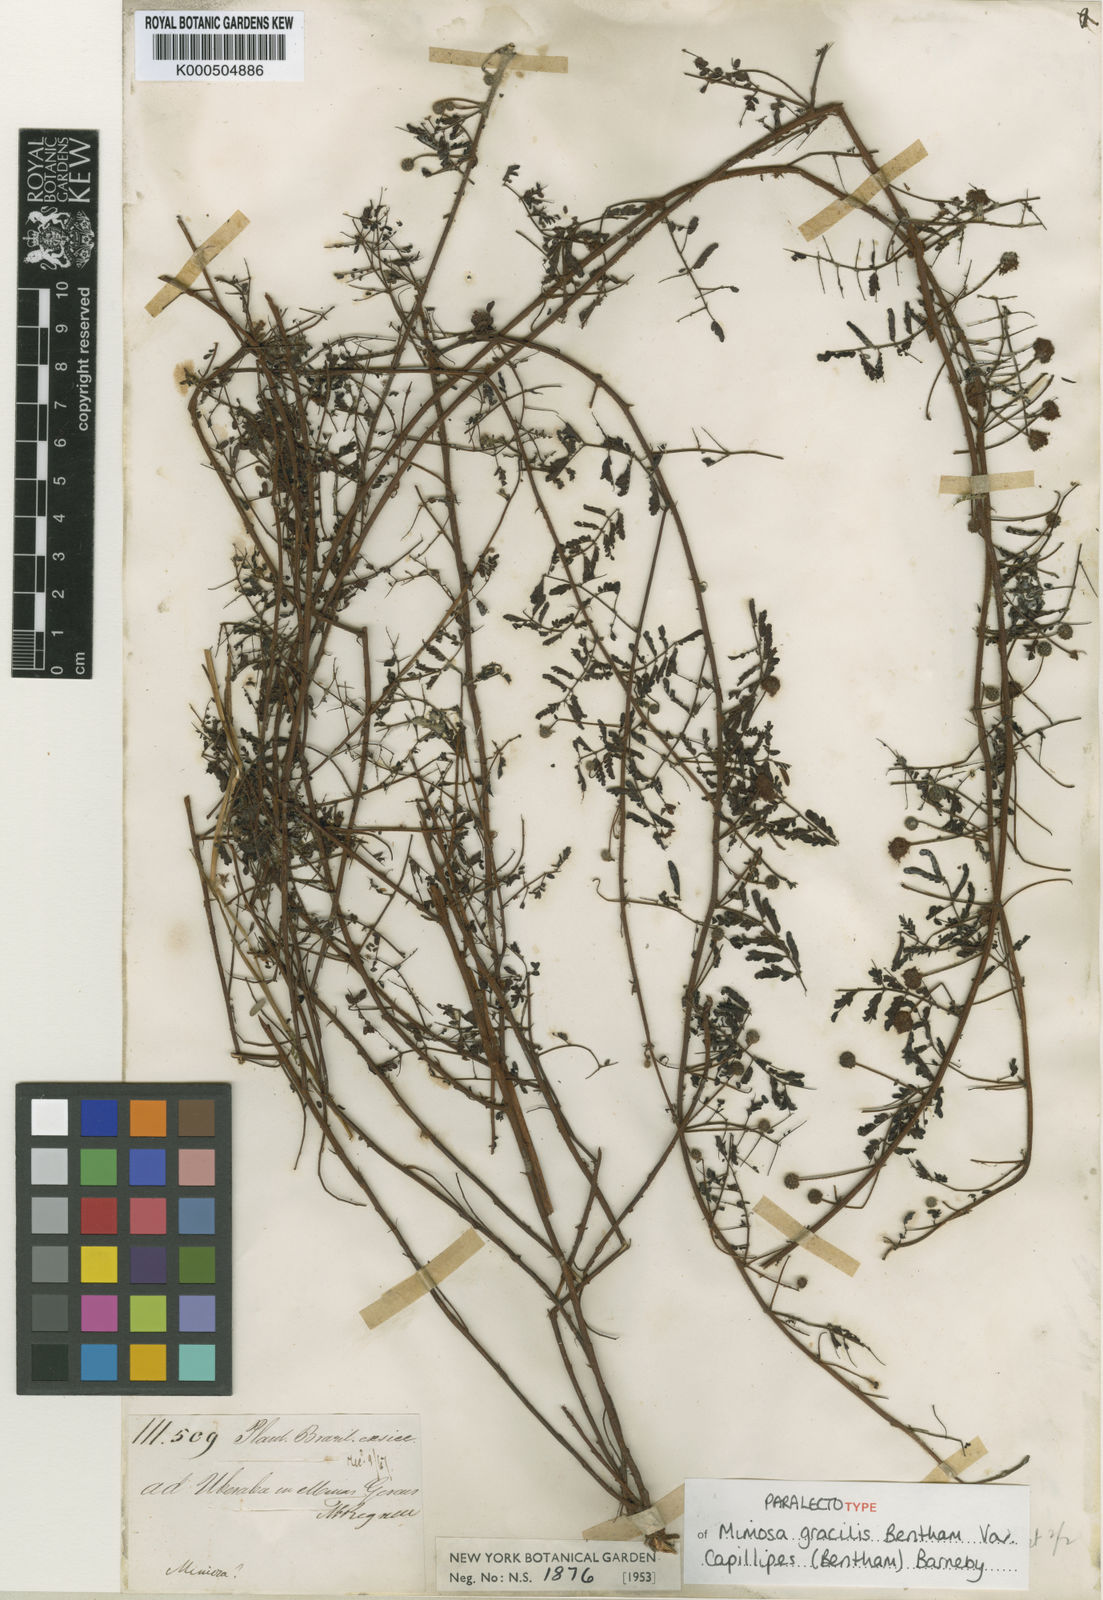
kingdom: Plantae
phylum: Tracheophyta
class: Magnoliopsida
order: Fabales
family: Fabaceae
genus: Mimosa
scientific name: Mimosa gracilis
